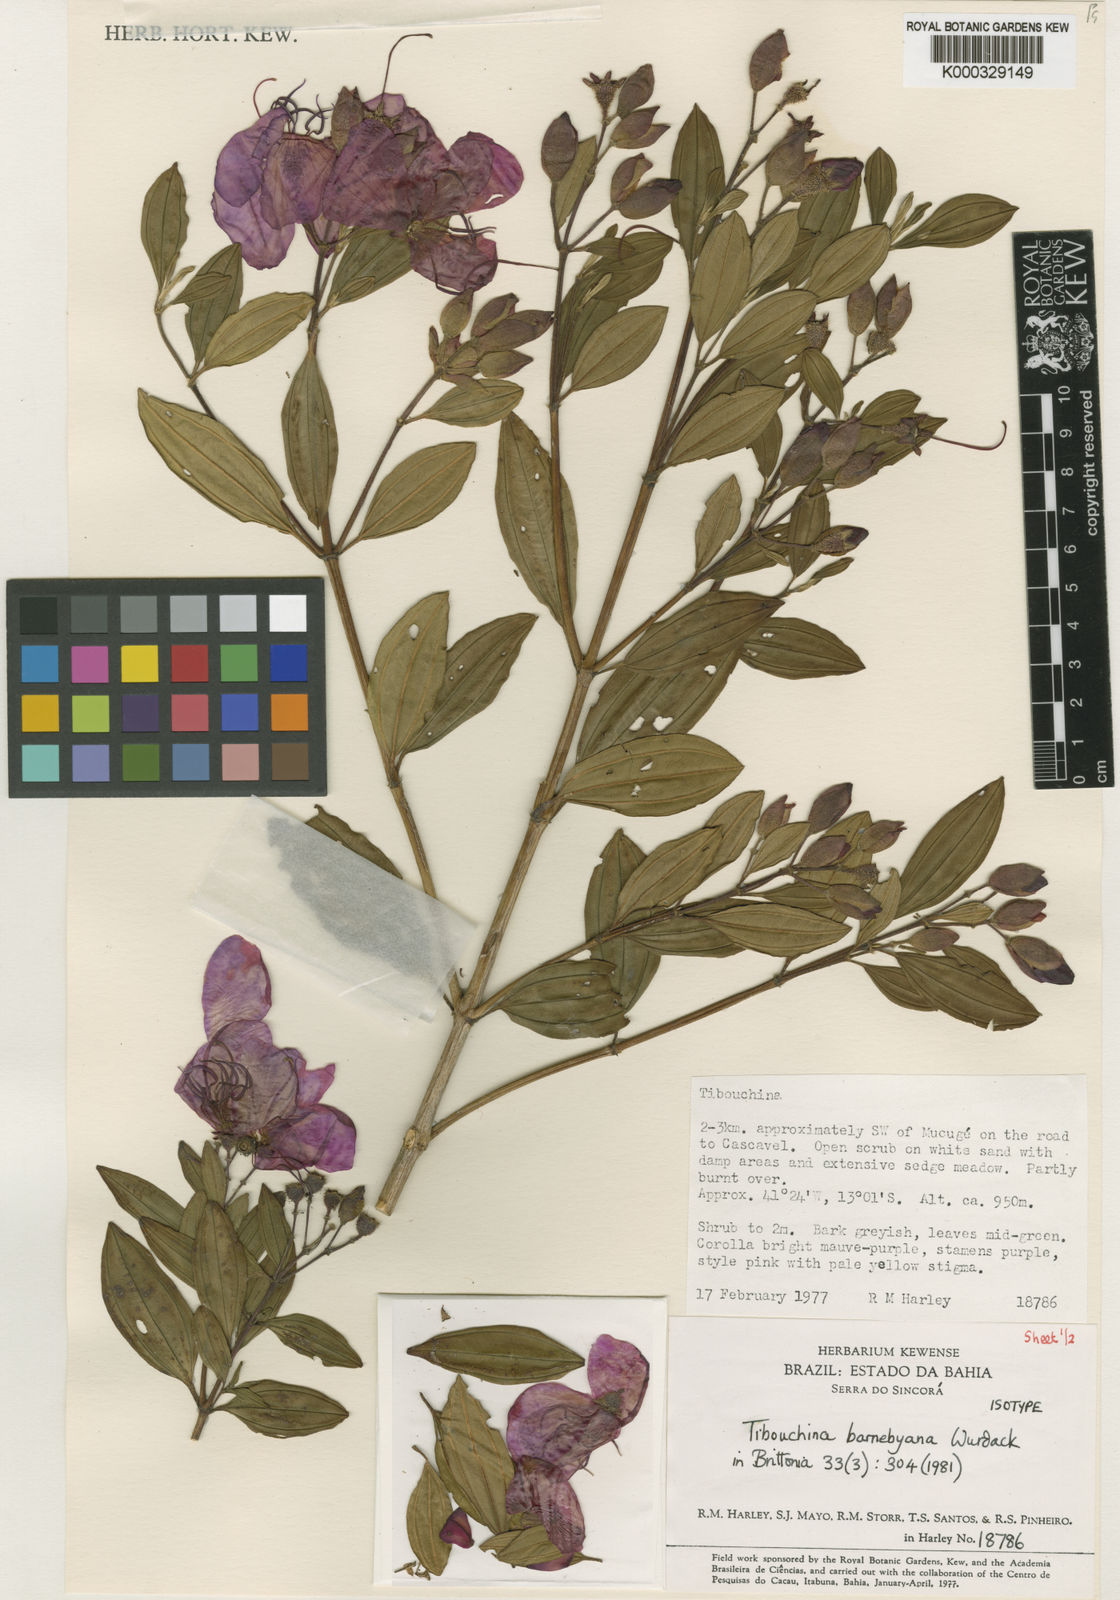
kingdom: Plantae
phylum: Tracheophyta
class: Magnoliopsida
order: Myrtales
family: Melastomataceae
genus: Pleroma
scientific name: Pleroma barnebyanum
